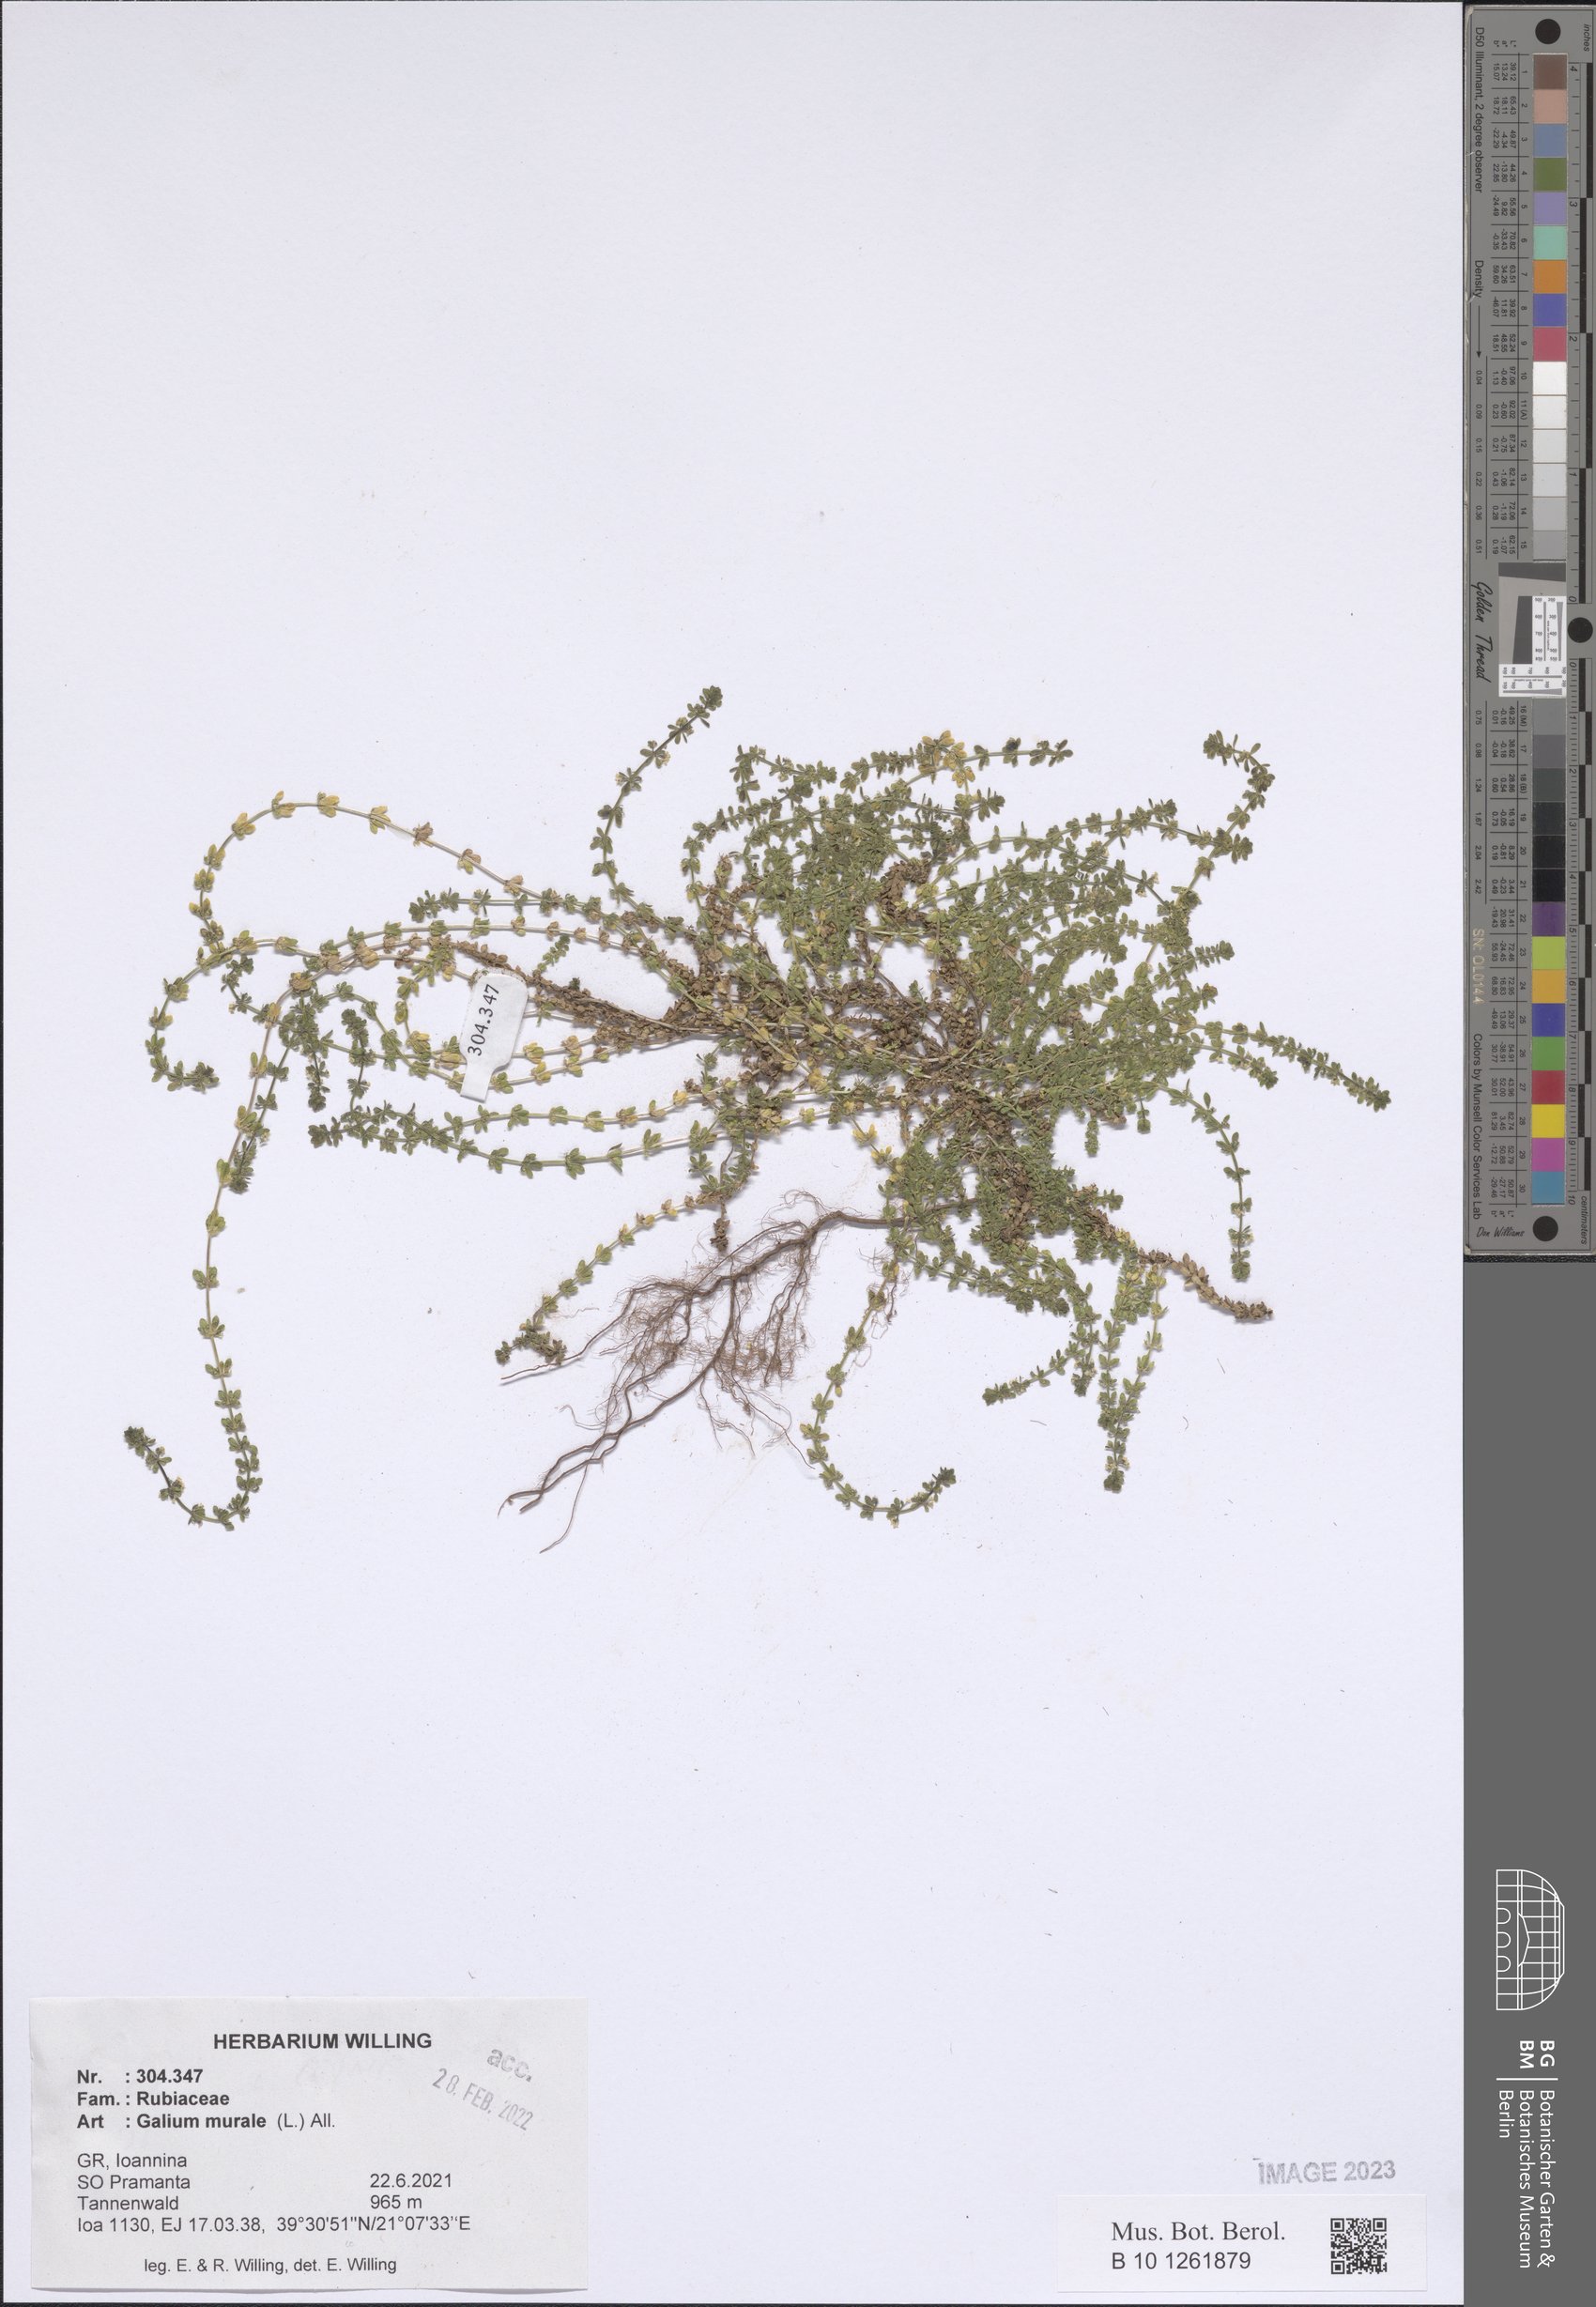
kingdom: Plantae
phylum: Tracheophyta
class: Magnoliopsida
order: Gentianales
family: Rubiaceae
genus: Galium
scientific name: Galium murale
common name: Yellow wall bedstraw
